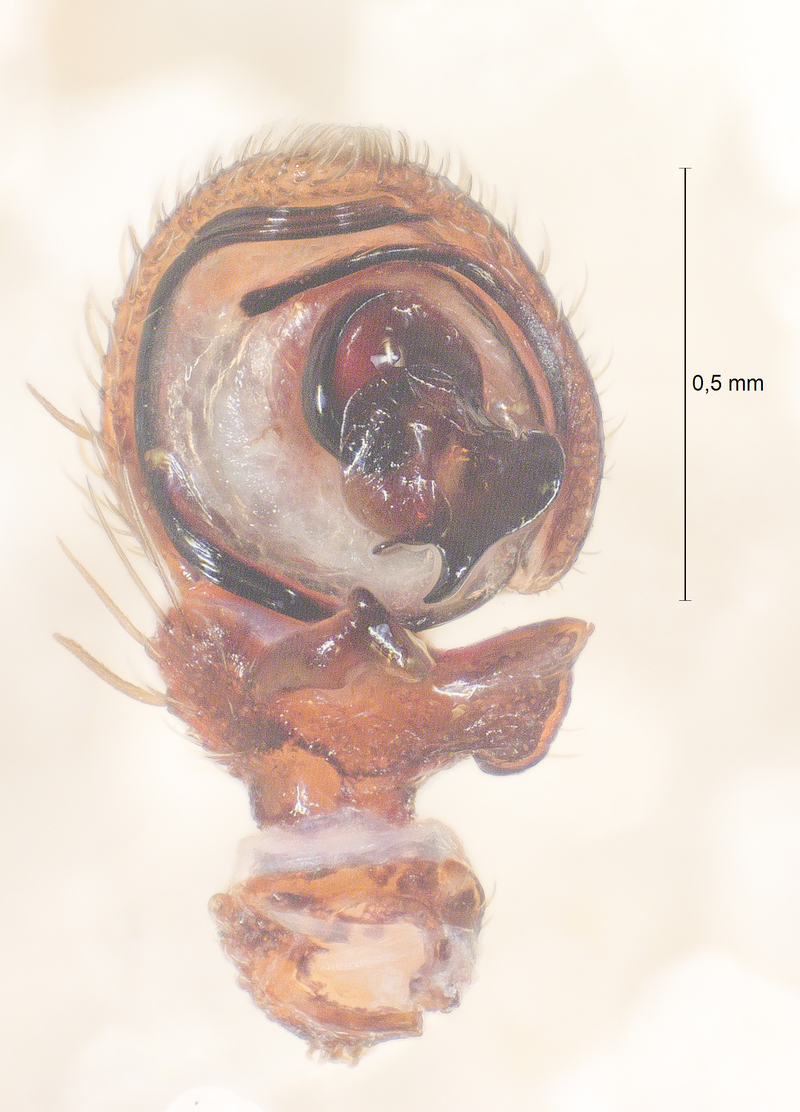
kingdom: Animalia
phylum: Arthropoda
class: Arachnida
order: Araneae
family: Thomisidae
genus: Ozyptila
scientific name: Ozyptila scabricula
